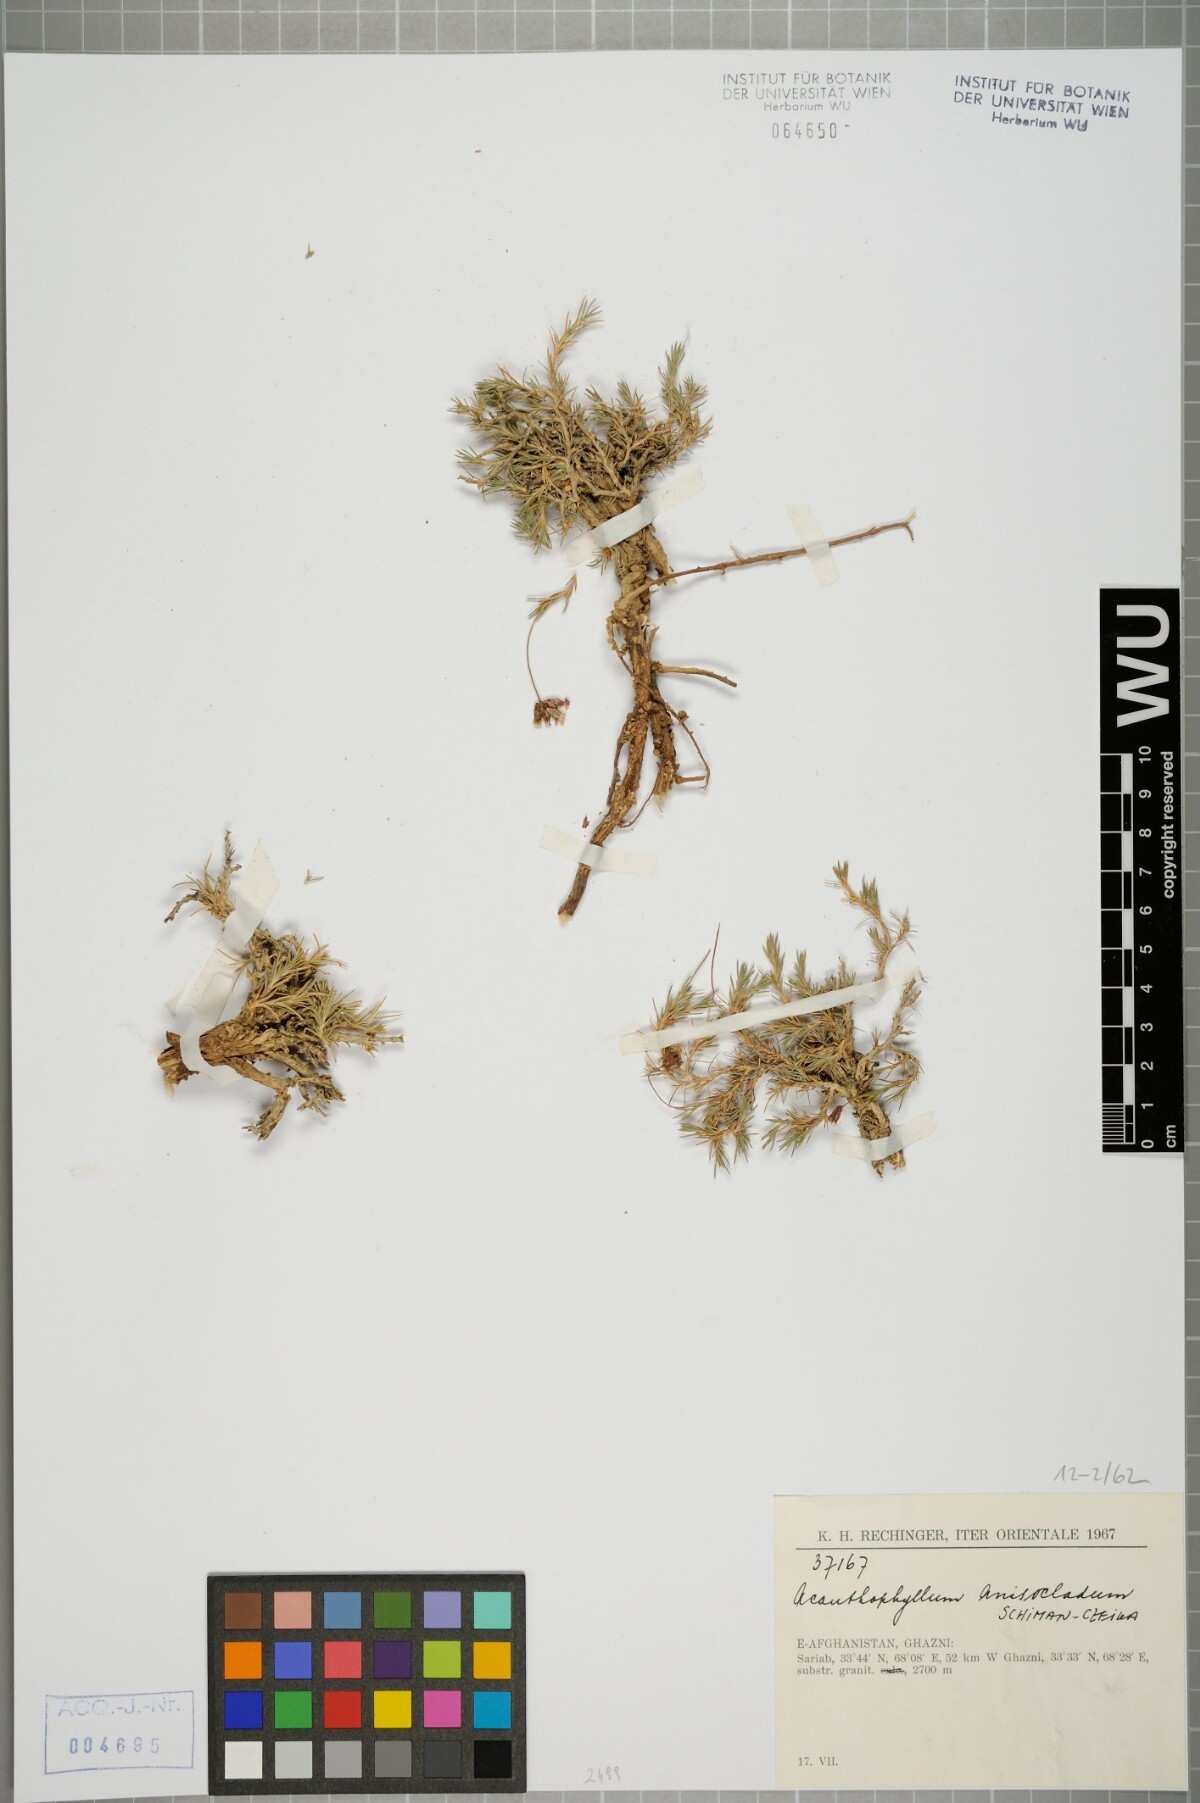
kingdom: Plantae
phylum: Tracheophyta
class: Magnoliopsida
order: Caryophyllales
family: Caryophyllaceae
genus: Acanthophyllum
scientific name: Acanthophyllum andarabicum
